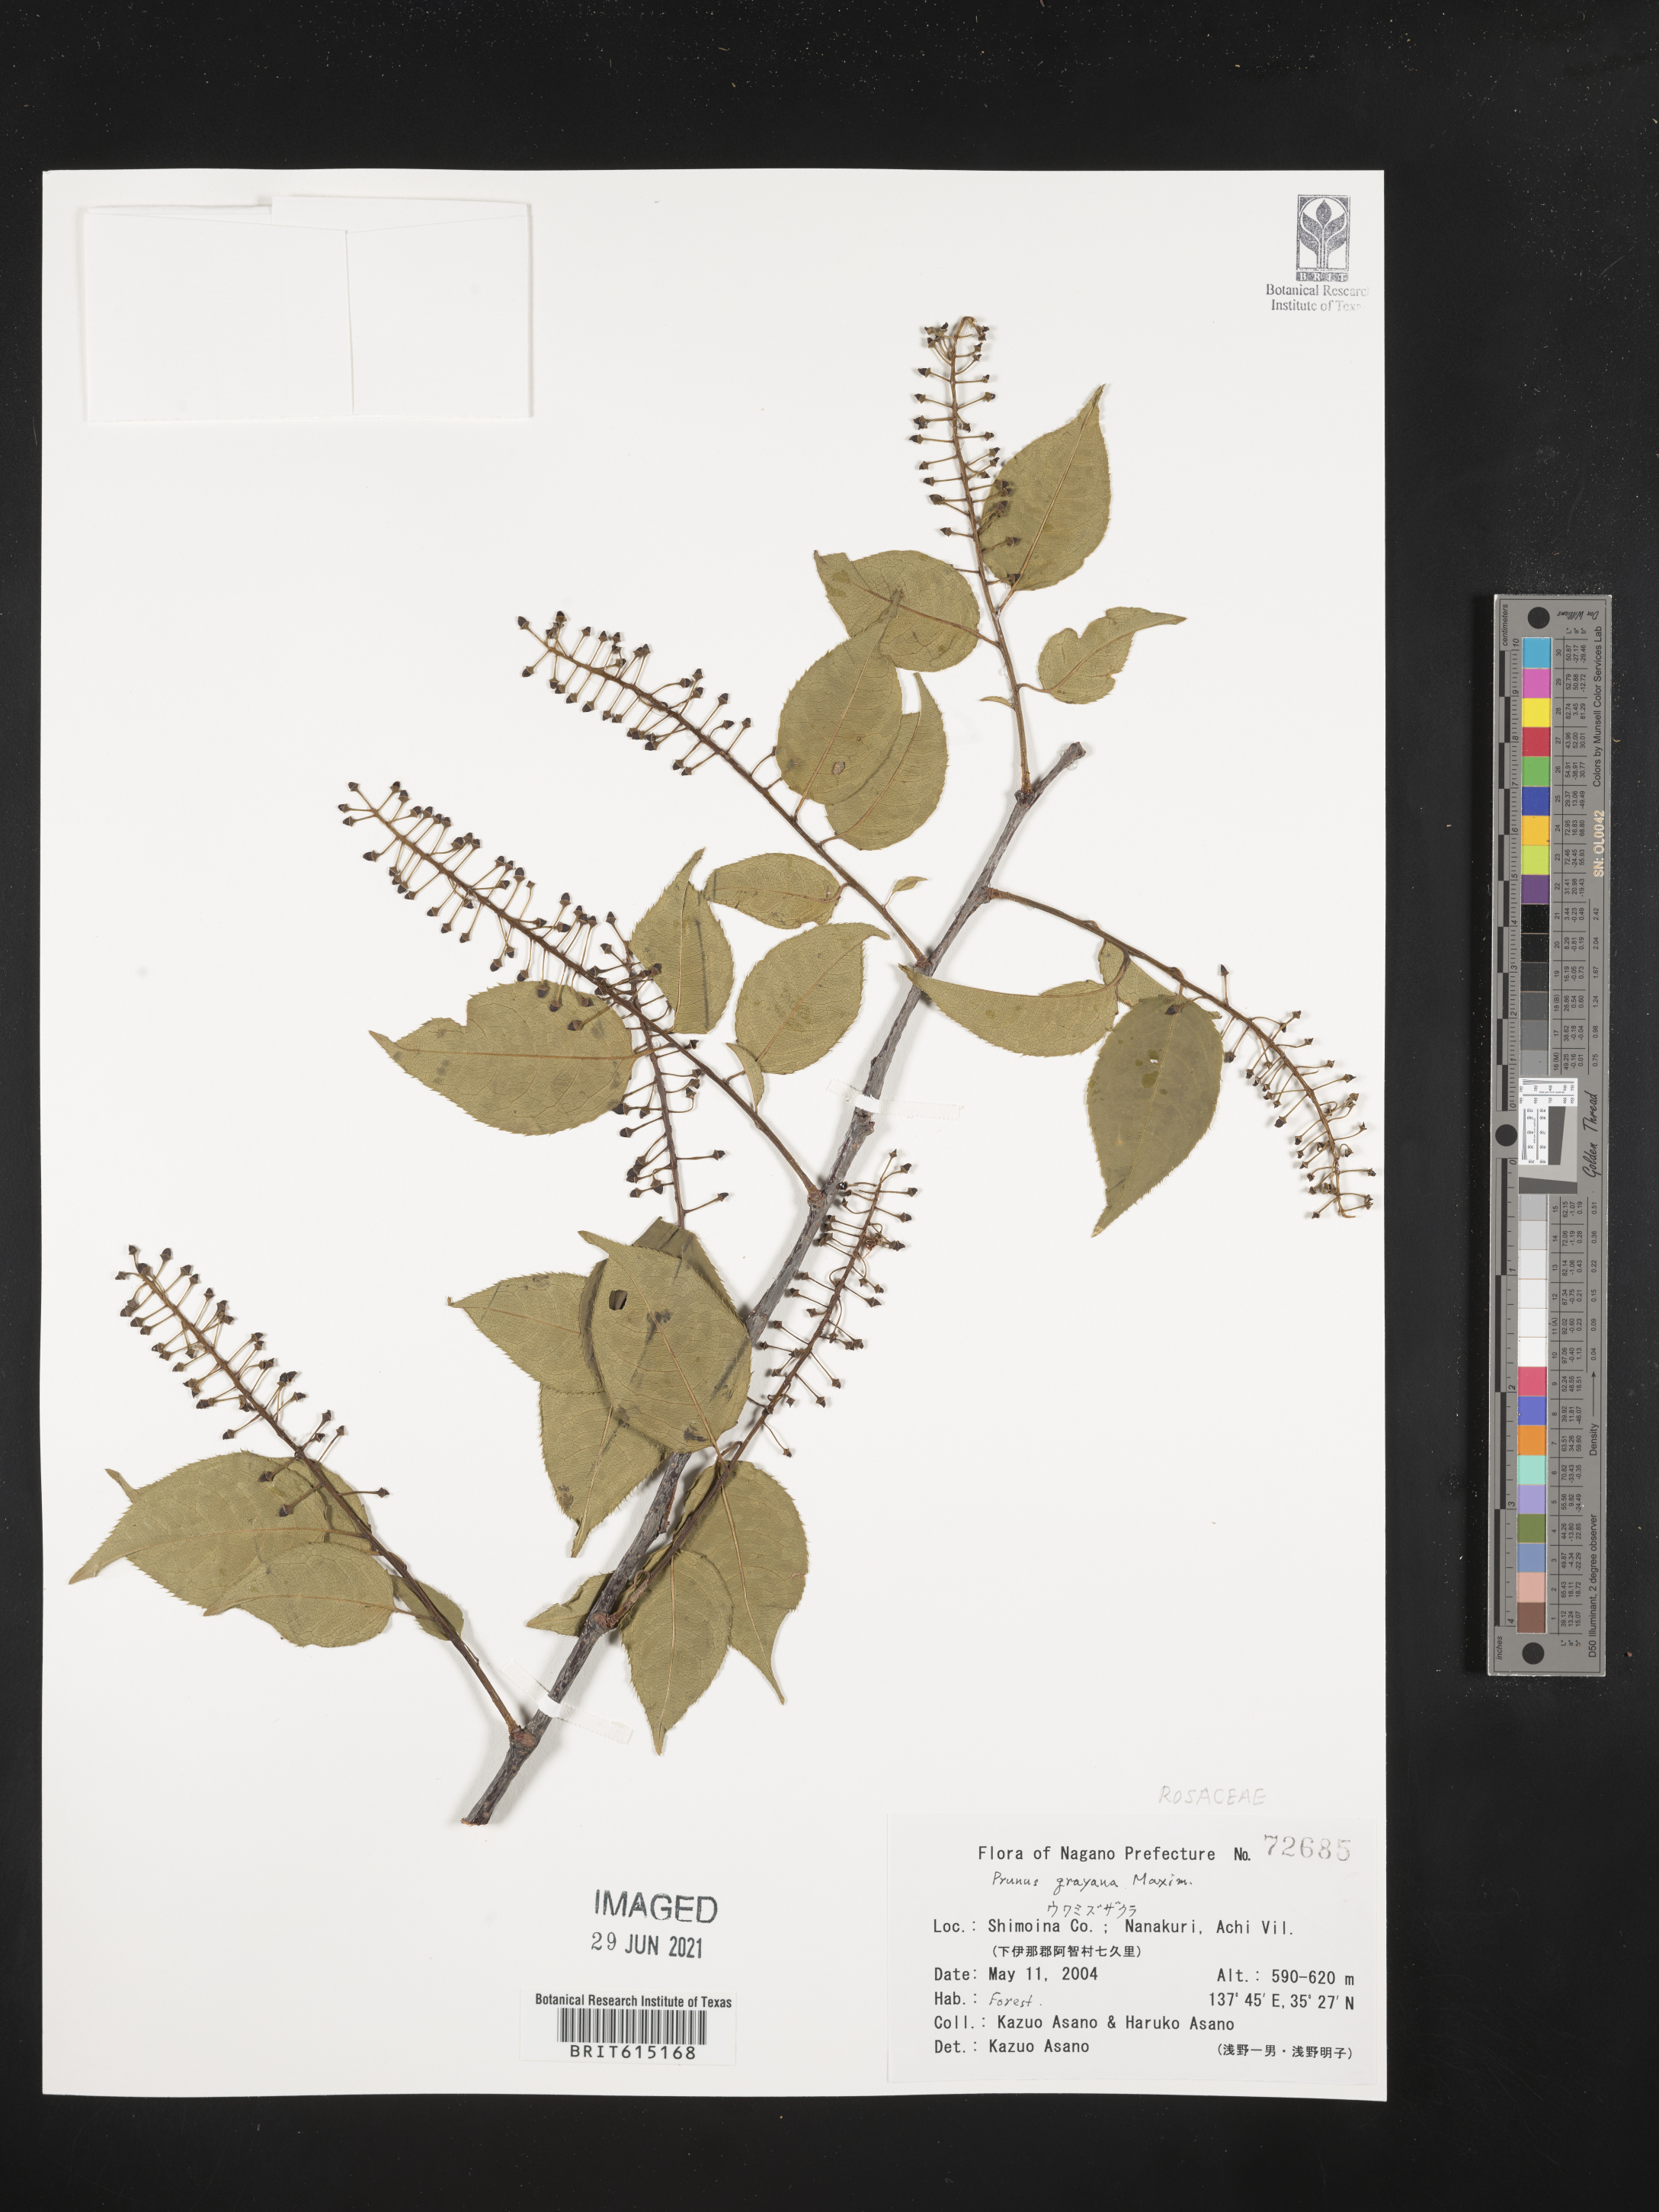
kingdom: Plantae
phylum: Tracheophyta
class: Magnoliopsida
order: Rosales
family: Rosaceae
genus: Prunus
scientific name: Prunus grayana
